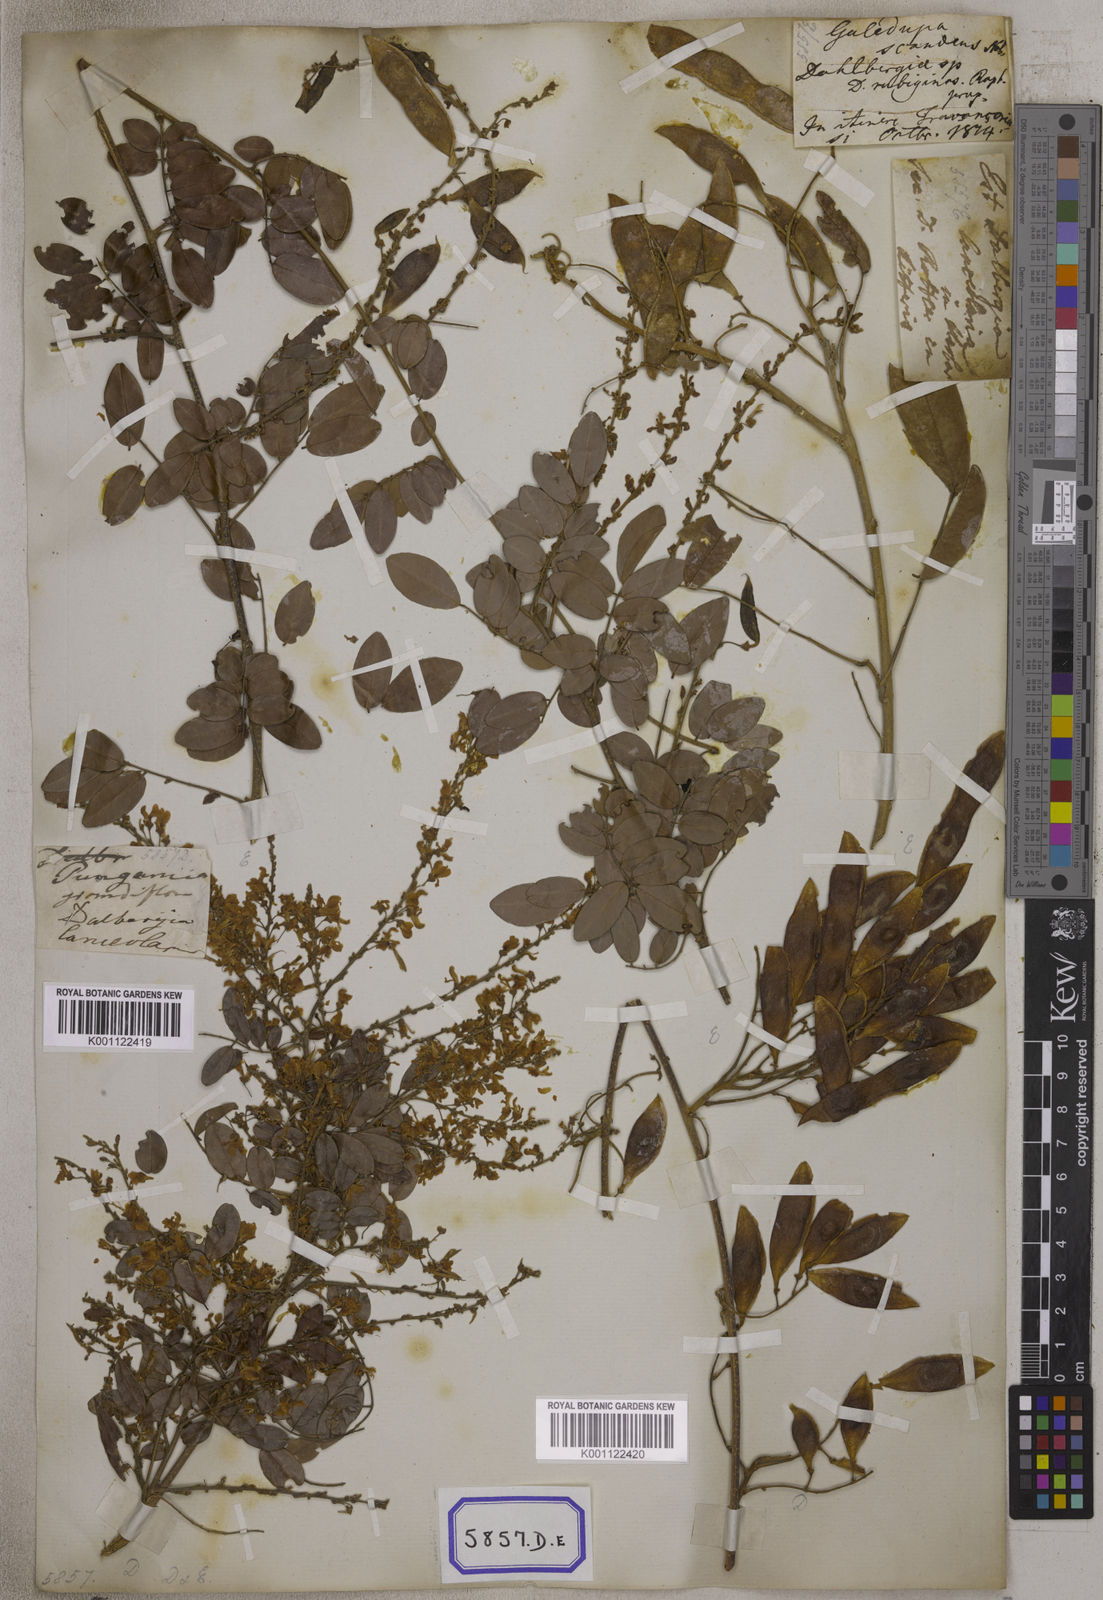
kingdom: Plantae
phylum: Tracheophyta
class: Magnoliopsida
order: Fabales
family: Fabaceae
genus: Brachypterum
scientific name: Brachypterum scandens
